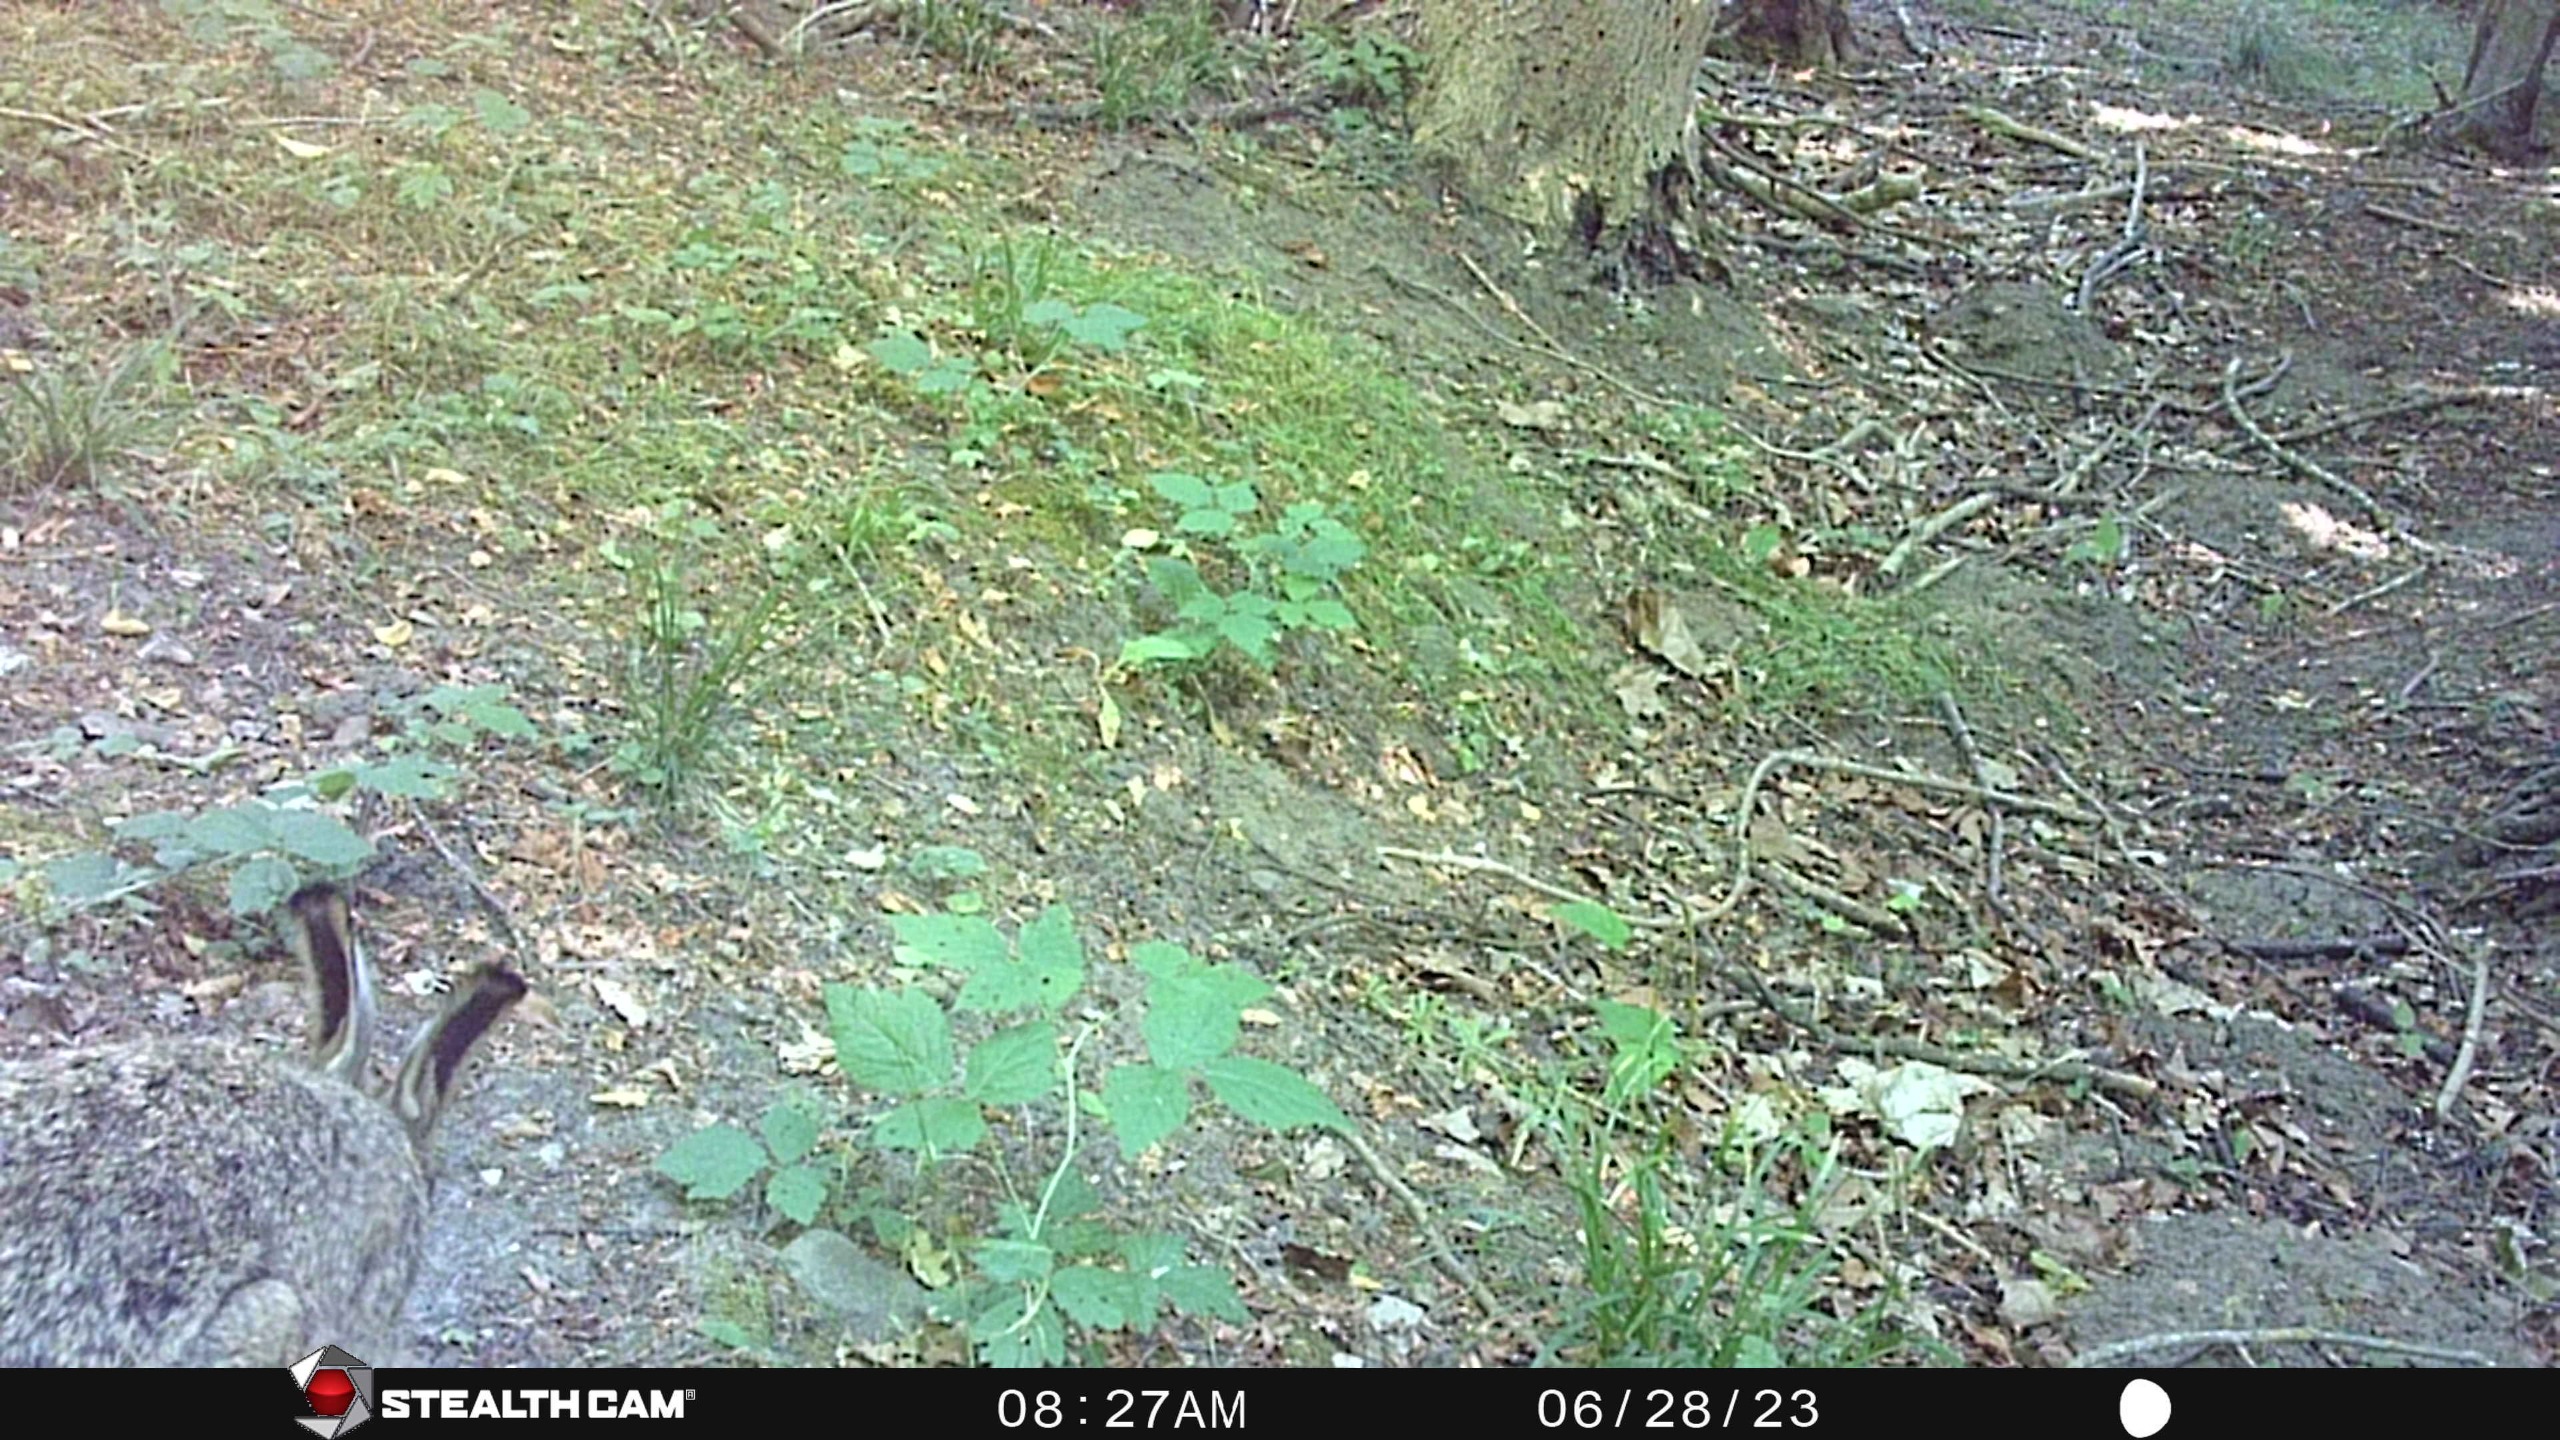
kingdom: Animalia
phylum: Chordata
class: Mammalia
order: Lagomorpha
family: Leporidae
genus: Lepus
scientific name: Lepus europaeus
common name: Hare
